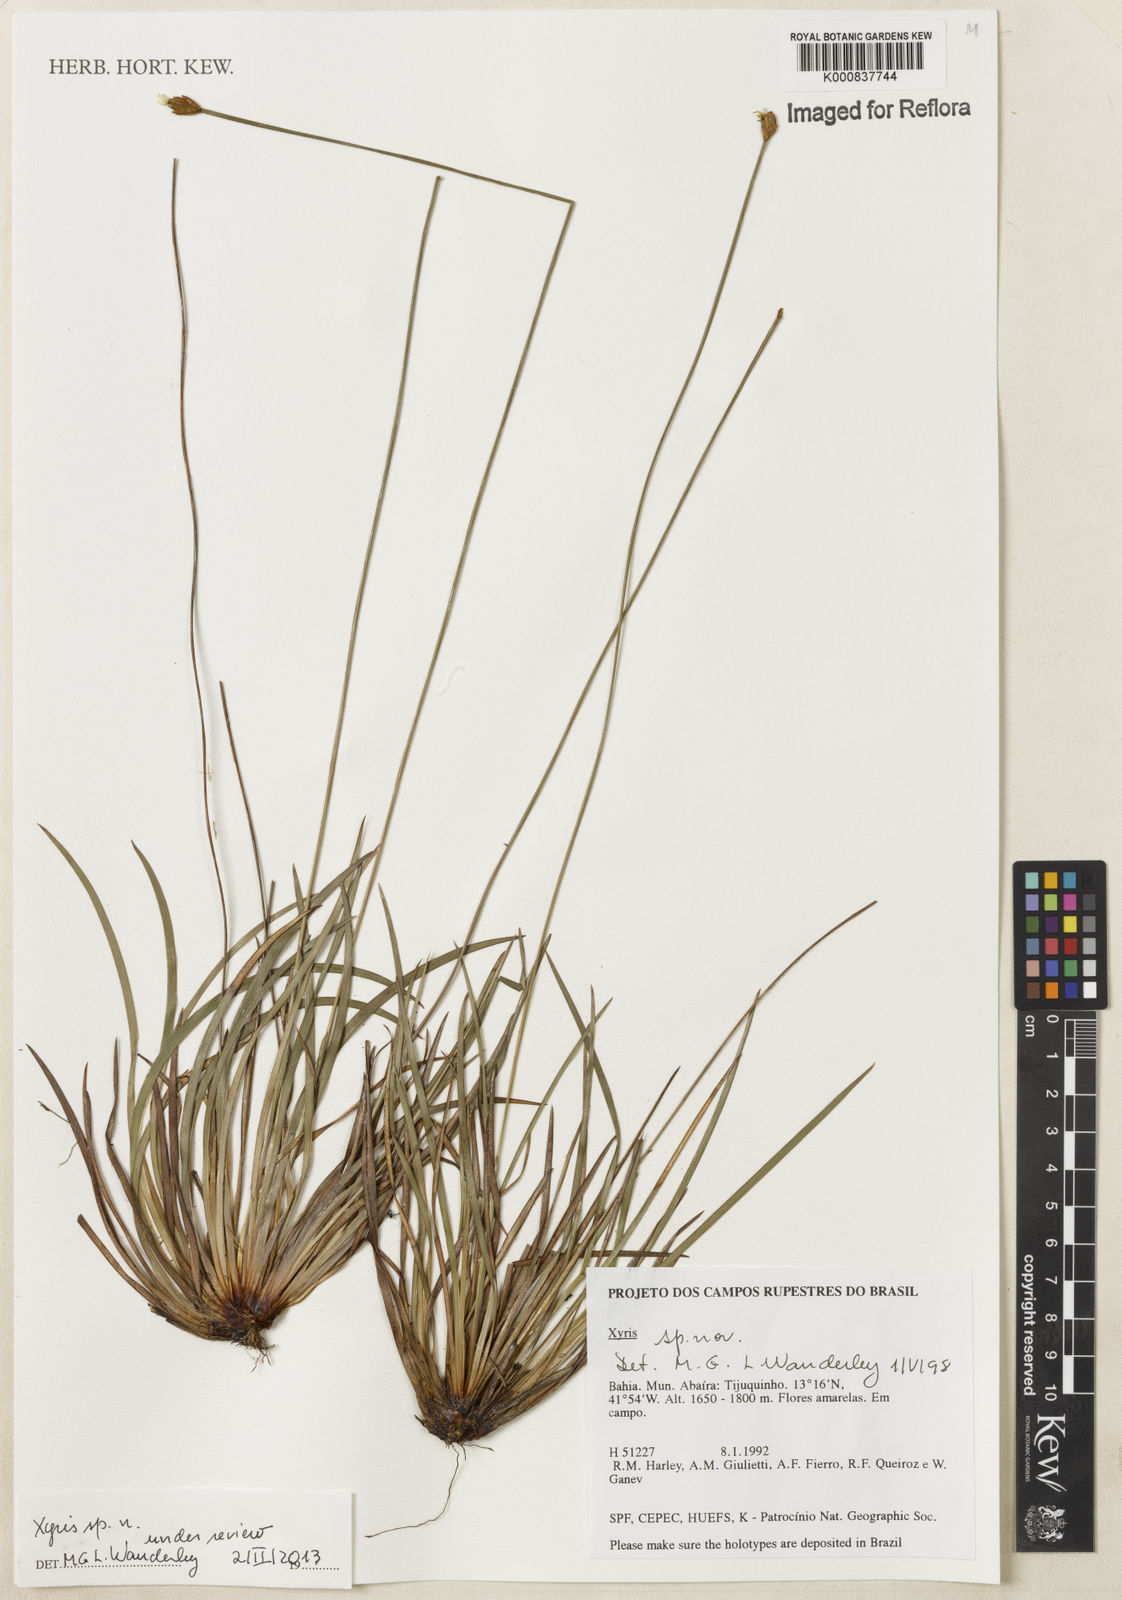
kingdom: Plantae
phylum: Tracheophyta
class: Liliopsida
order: Poales
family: Xyridaceae
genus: Xyris
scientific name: Xyris
